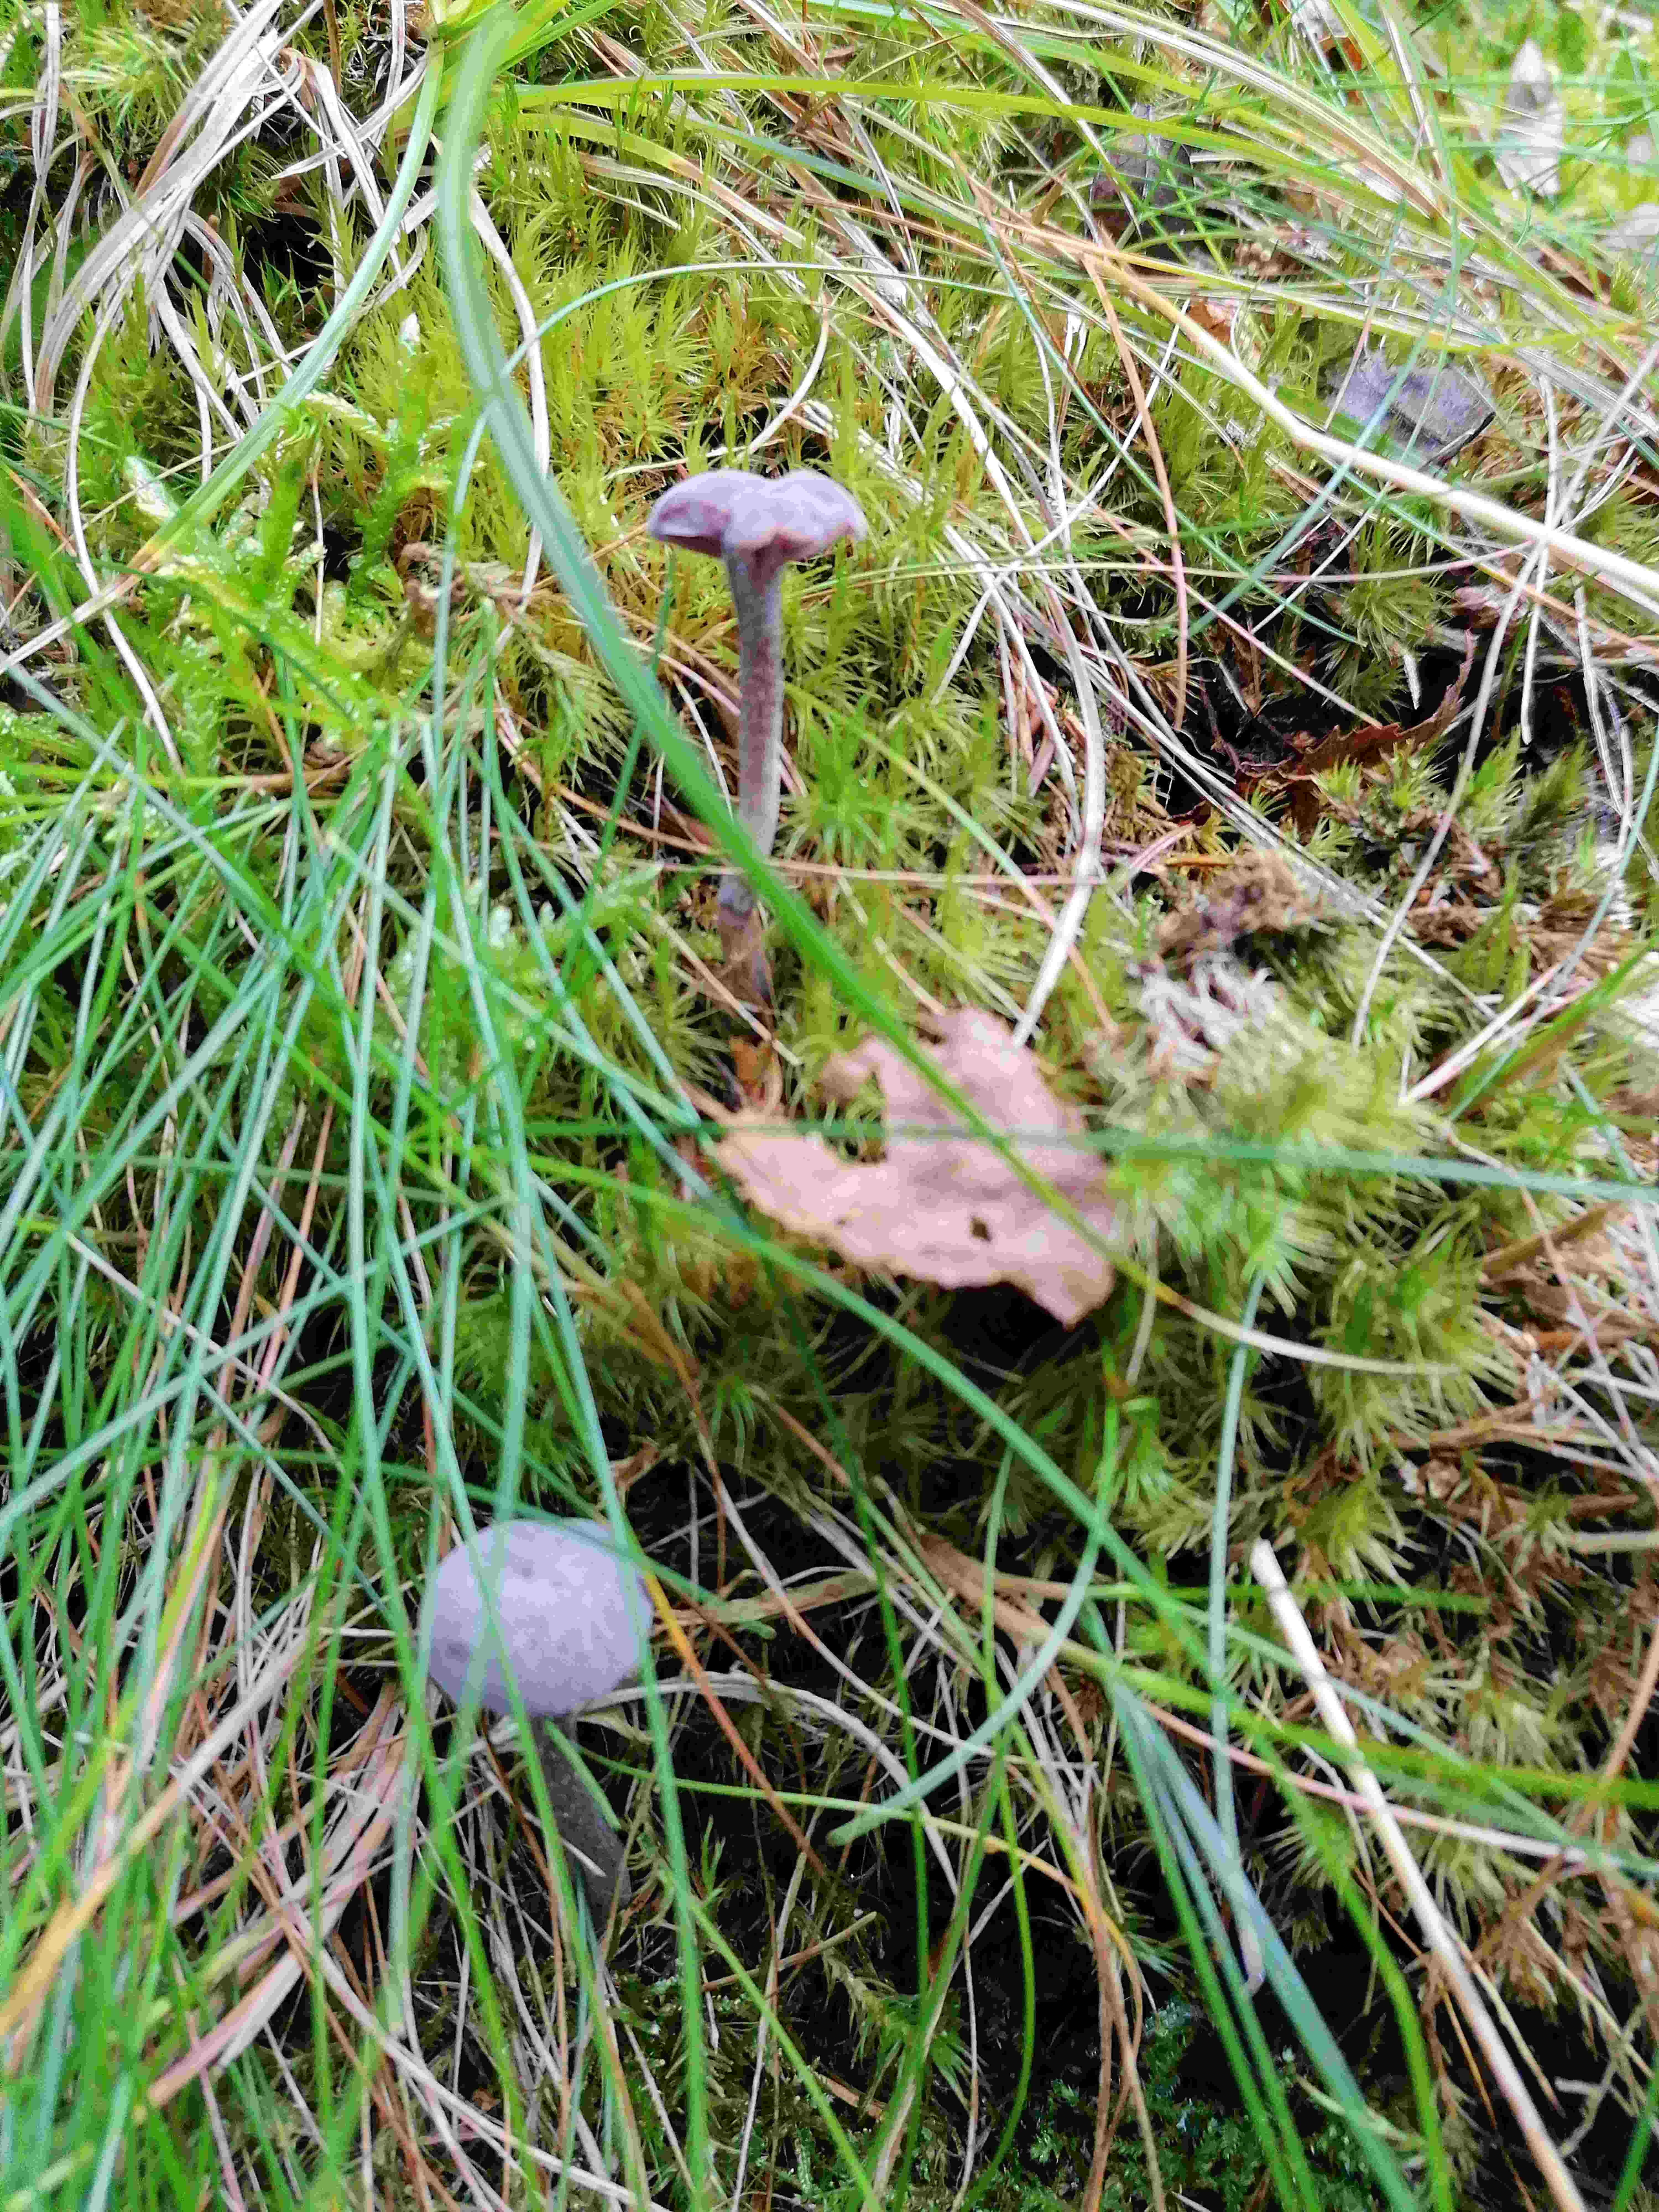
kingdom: Fungi
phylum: Basidiomycota
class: Agaricomycetes
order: Agaricales
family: Hydnangiaceae
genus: Laccaria
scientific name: Laccaria amethystina
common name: violet ametysthat
